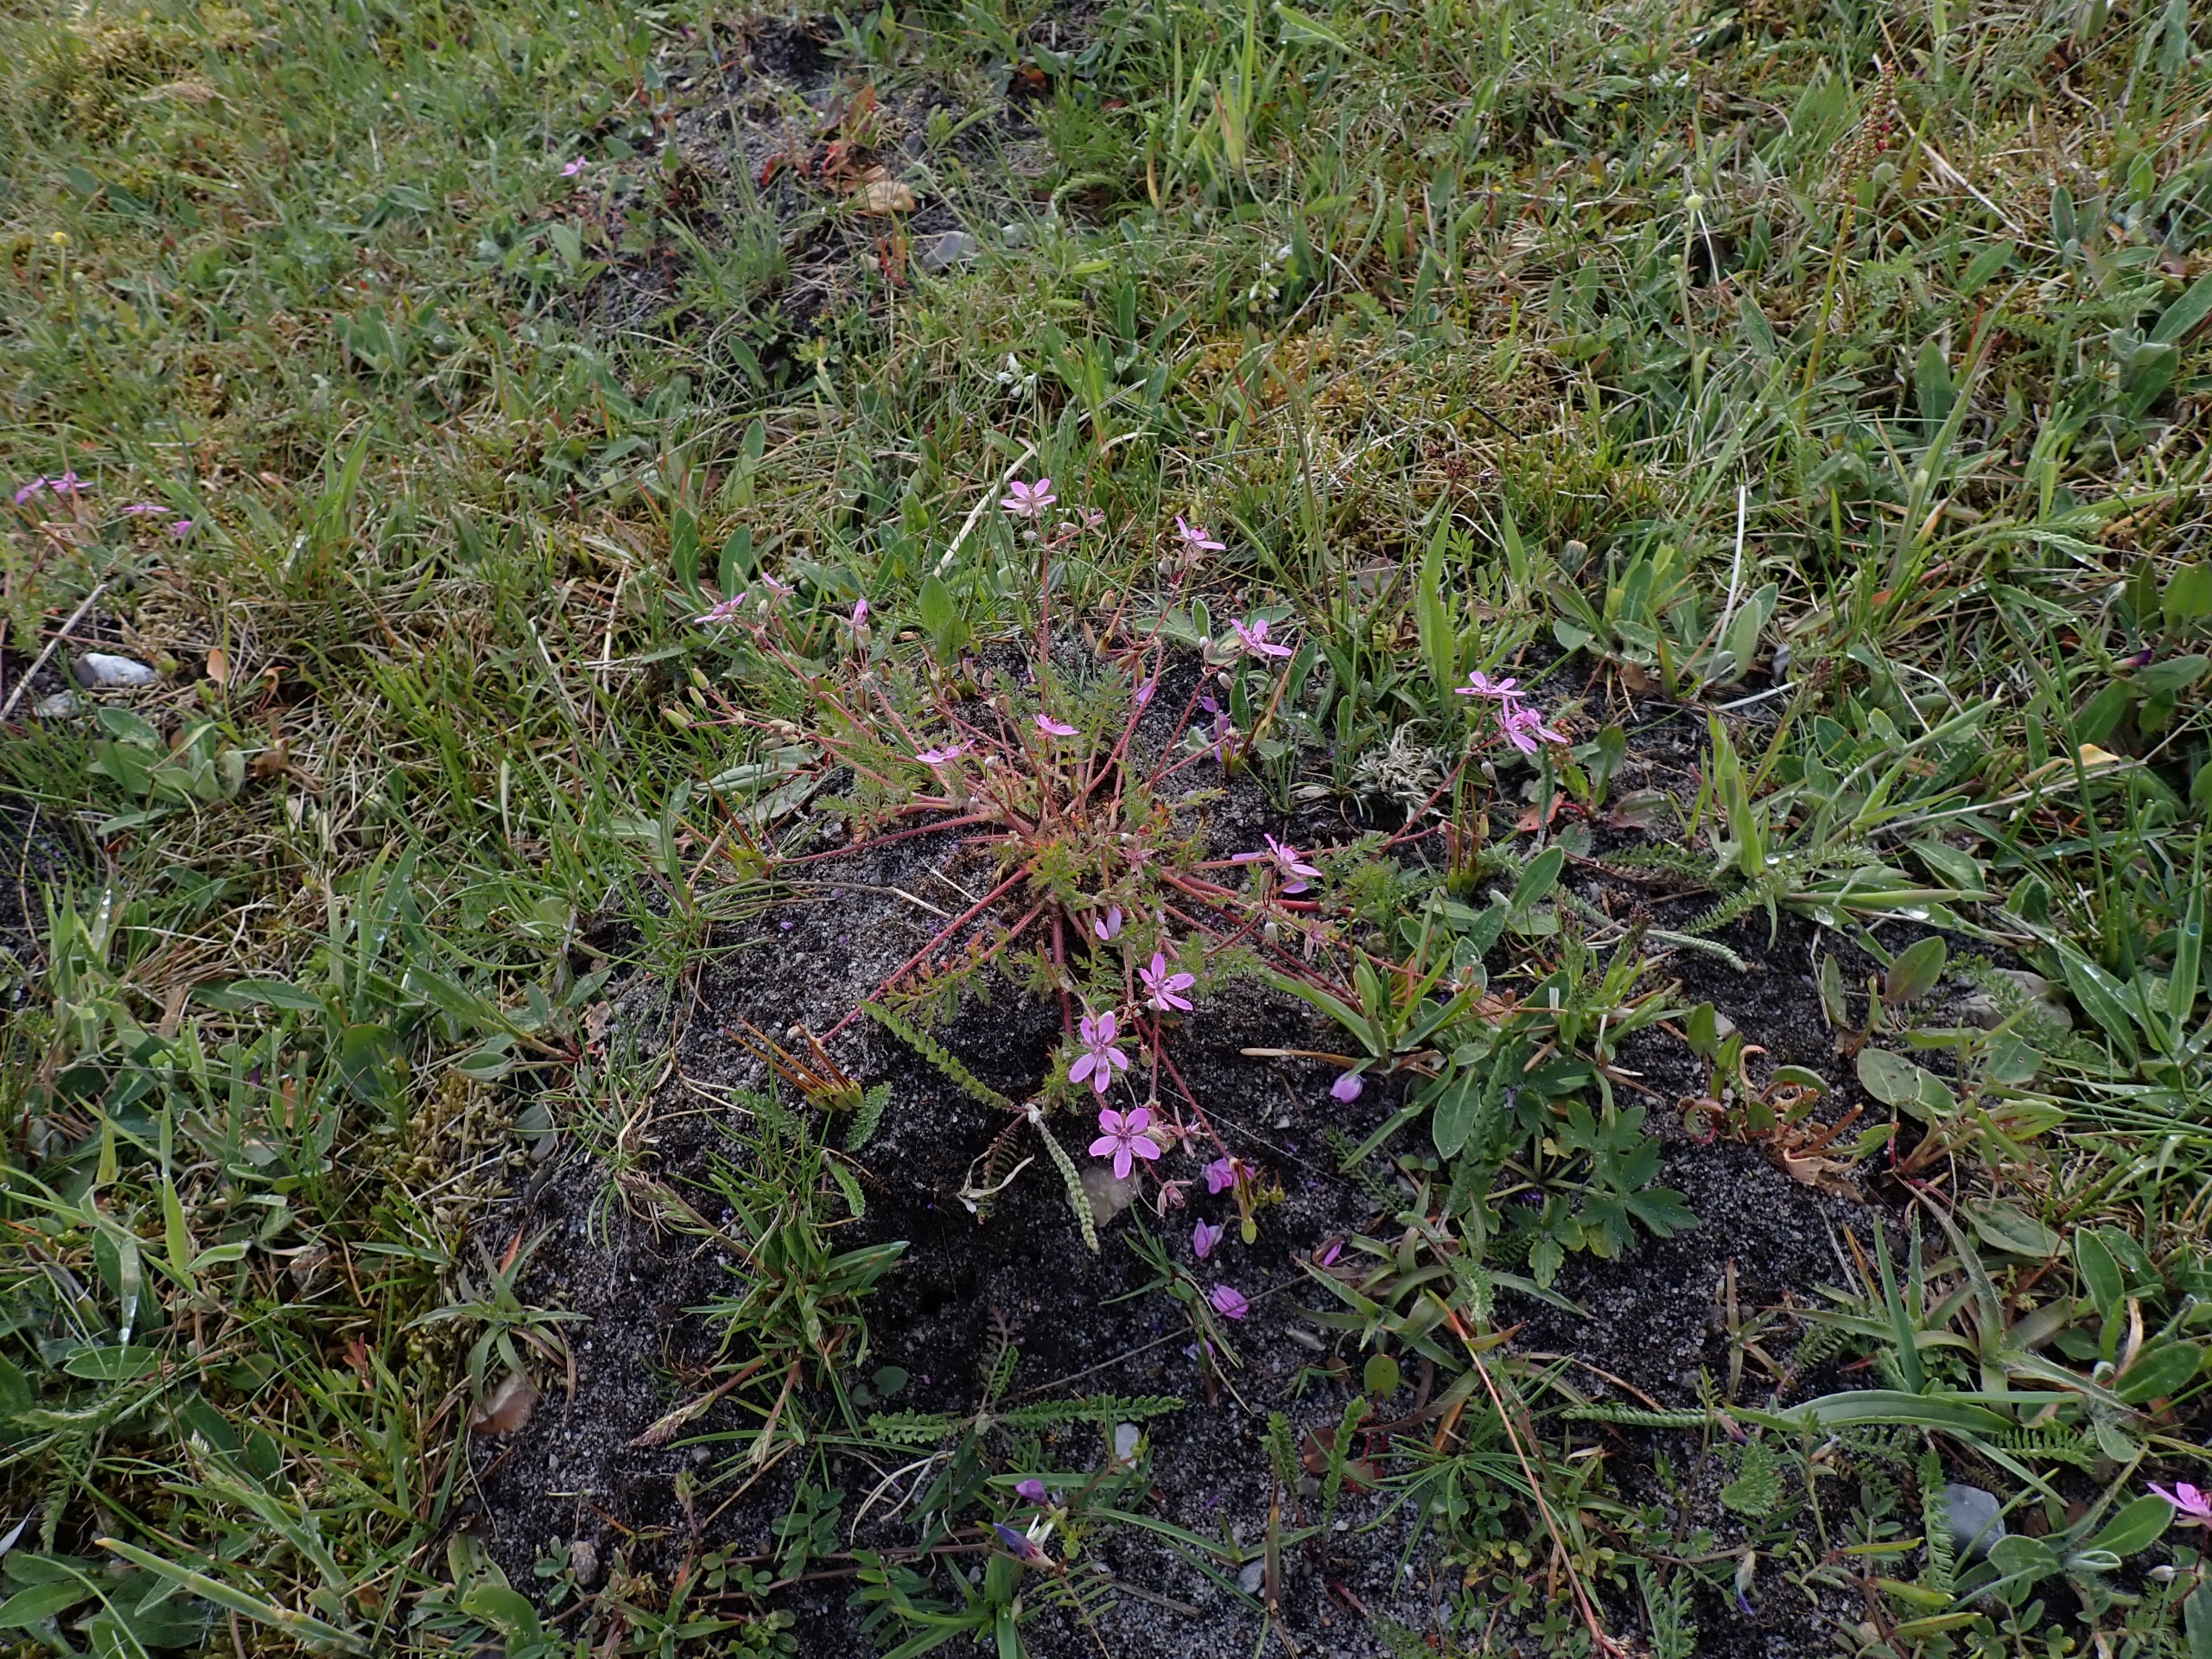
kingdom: Plantae
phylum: Tracheophyta
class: Magnoliopsida
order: Geraniales
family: Geraniaceae
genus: Erodium
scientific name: Erodium cicutarium
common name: Hejrenæb
